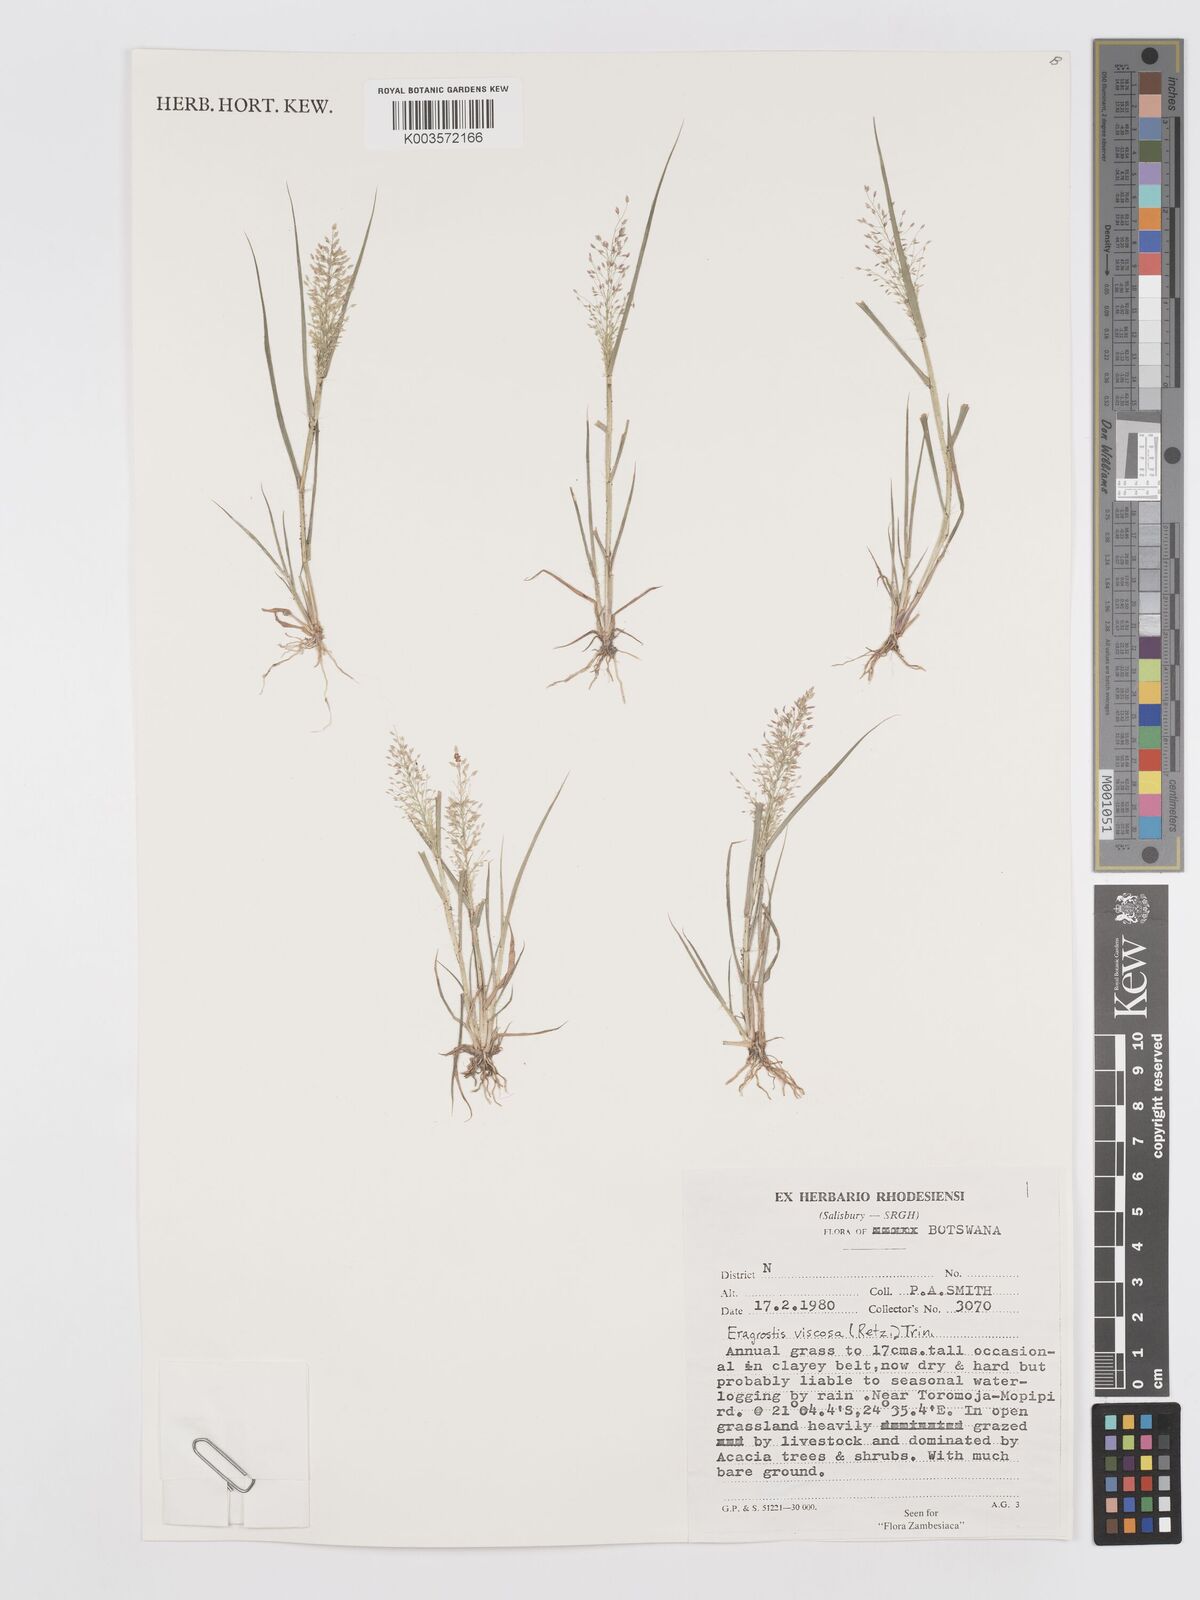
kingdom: Plantae
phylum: Tracheophyta
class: Liliopsida
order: Poales
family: Poaceae
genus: Eragrostis
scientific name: Eragrostis
